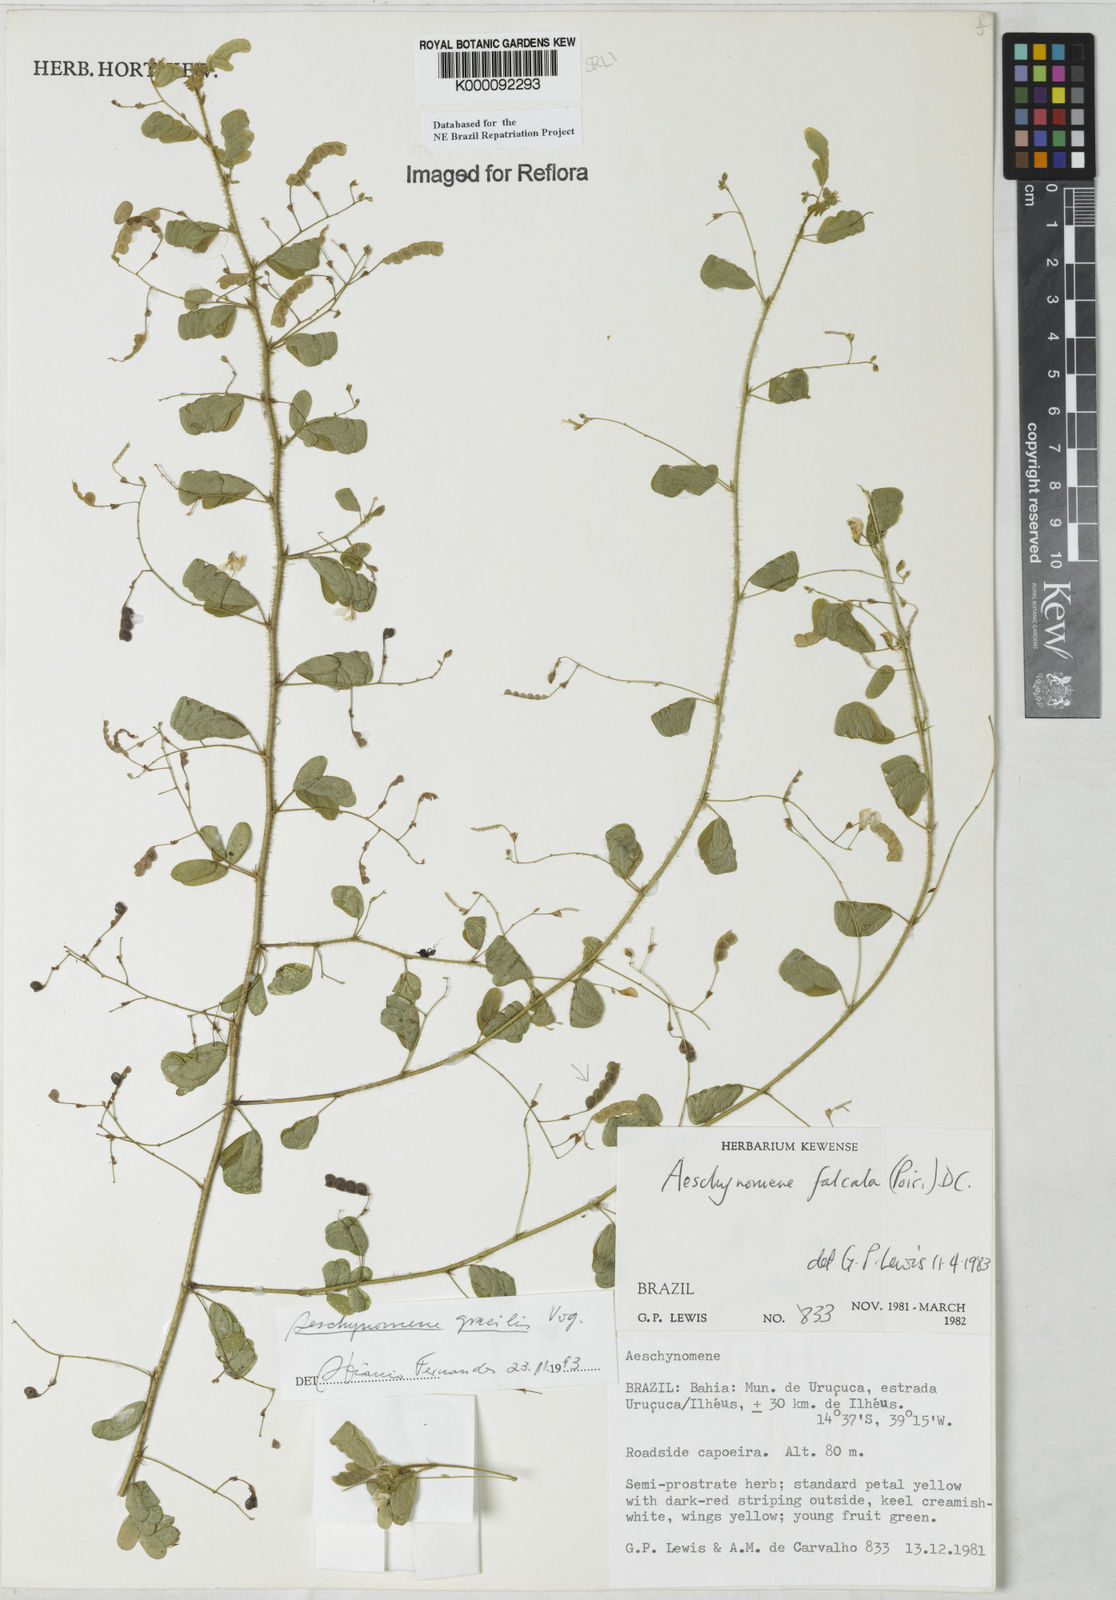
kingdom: Plantae
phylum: Tracheophyta
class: Magnoliopsida
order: Fabales
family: Fabaceae
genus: Ctenodon
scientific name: Ctenodon gracilis
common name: Puerto rico jointvetch
